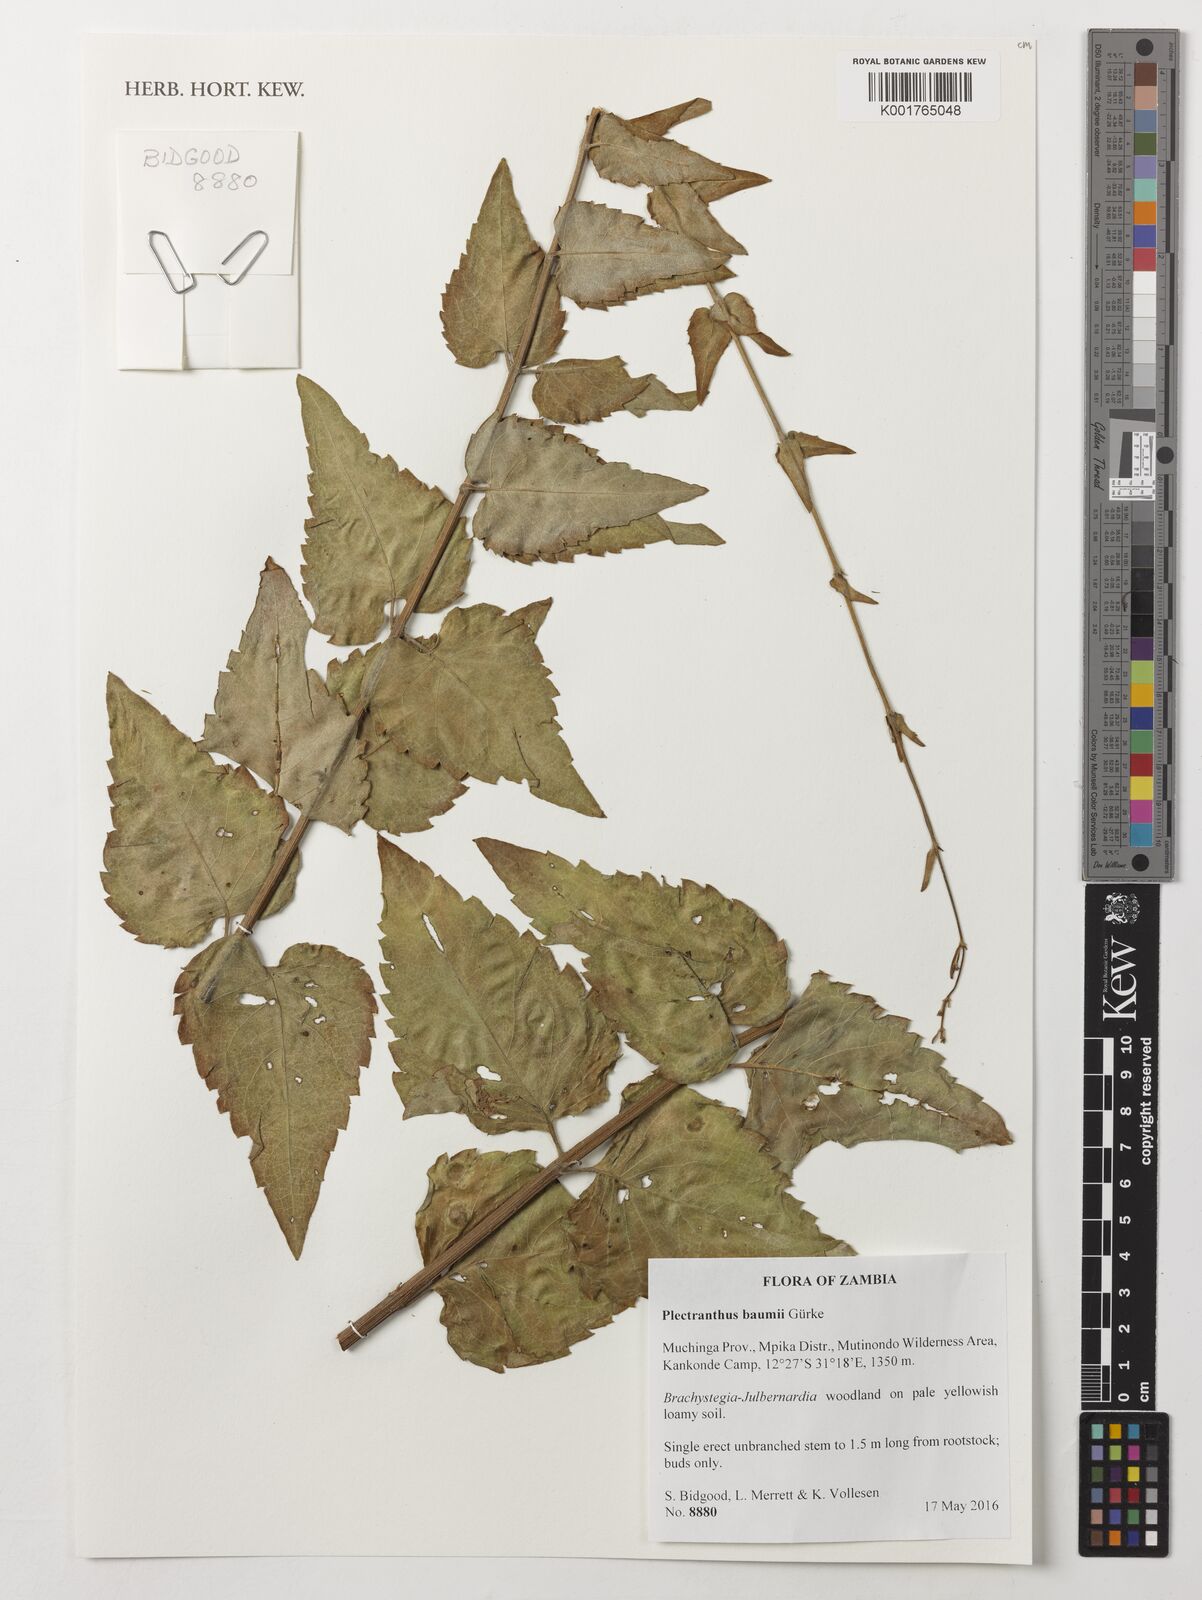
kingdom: Plantae
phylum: Tracheophyta
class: Magnoliopsida
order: Lamiales
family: Lamiaceae
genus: Coleus
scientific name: Coleus gracilipedicellatum
